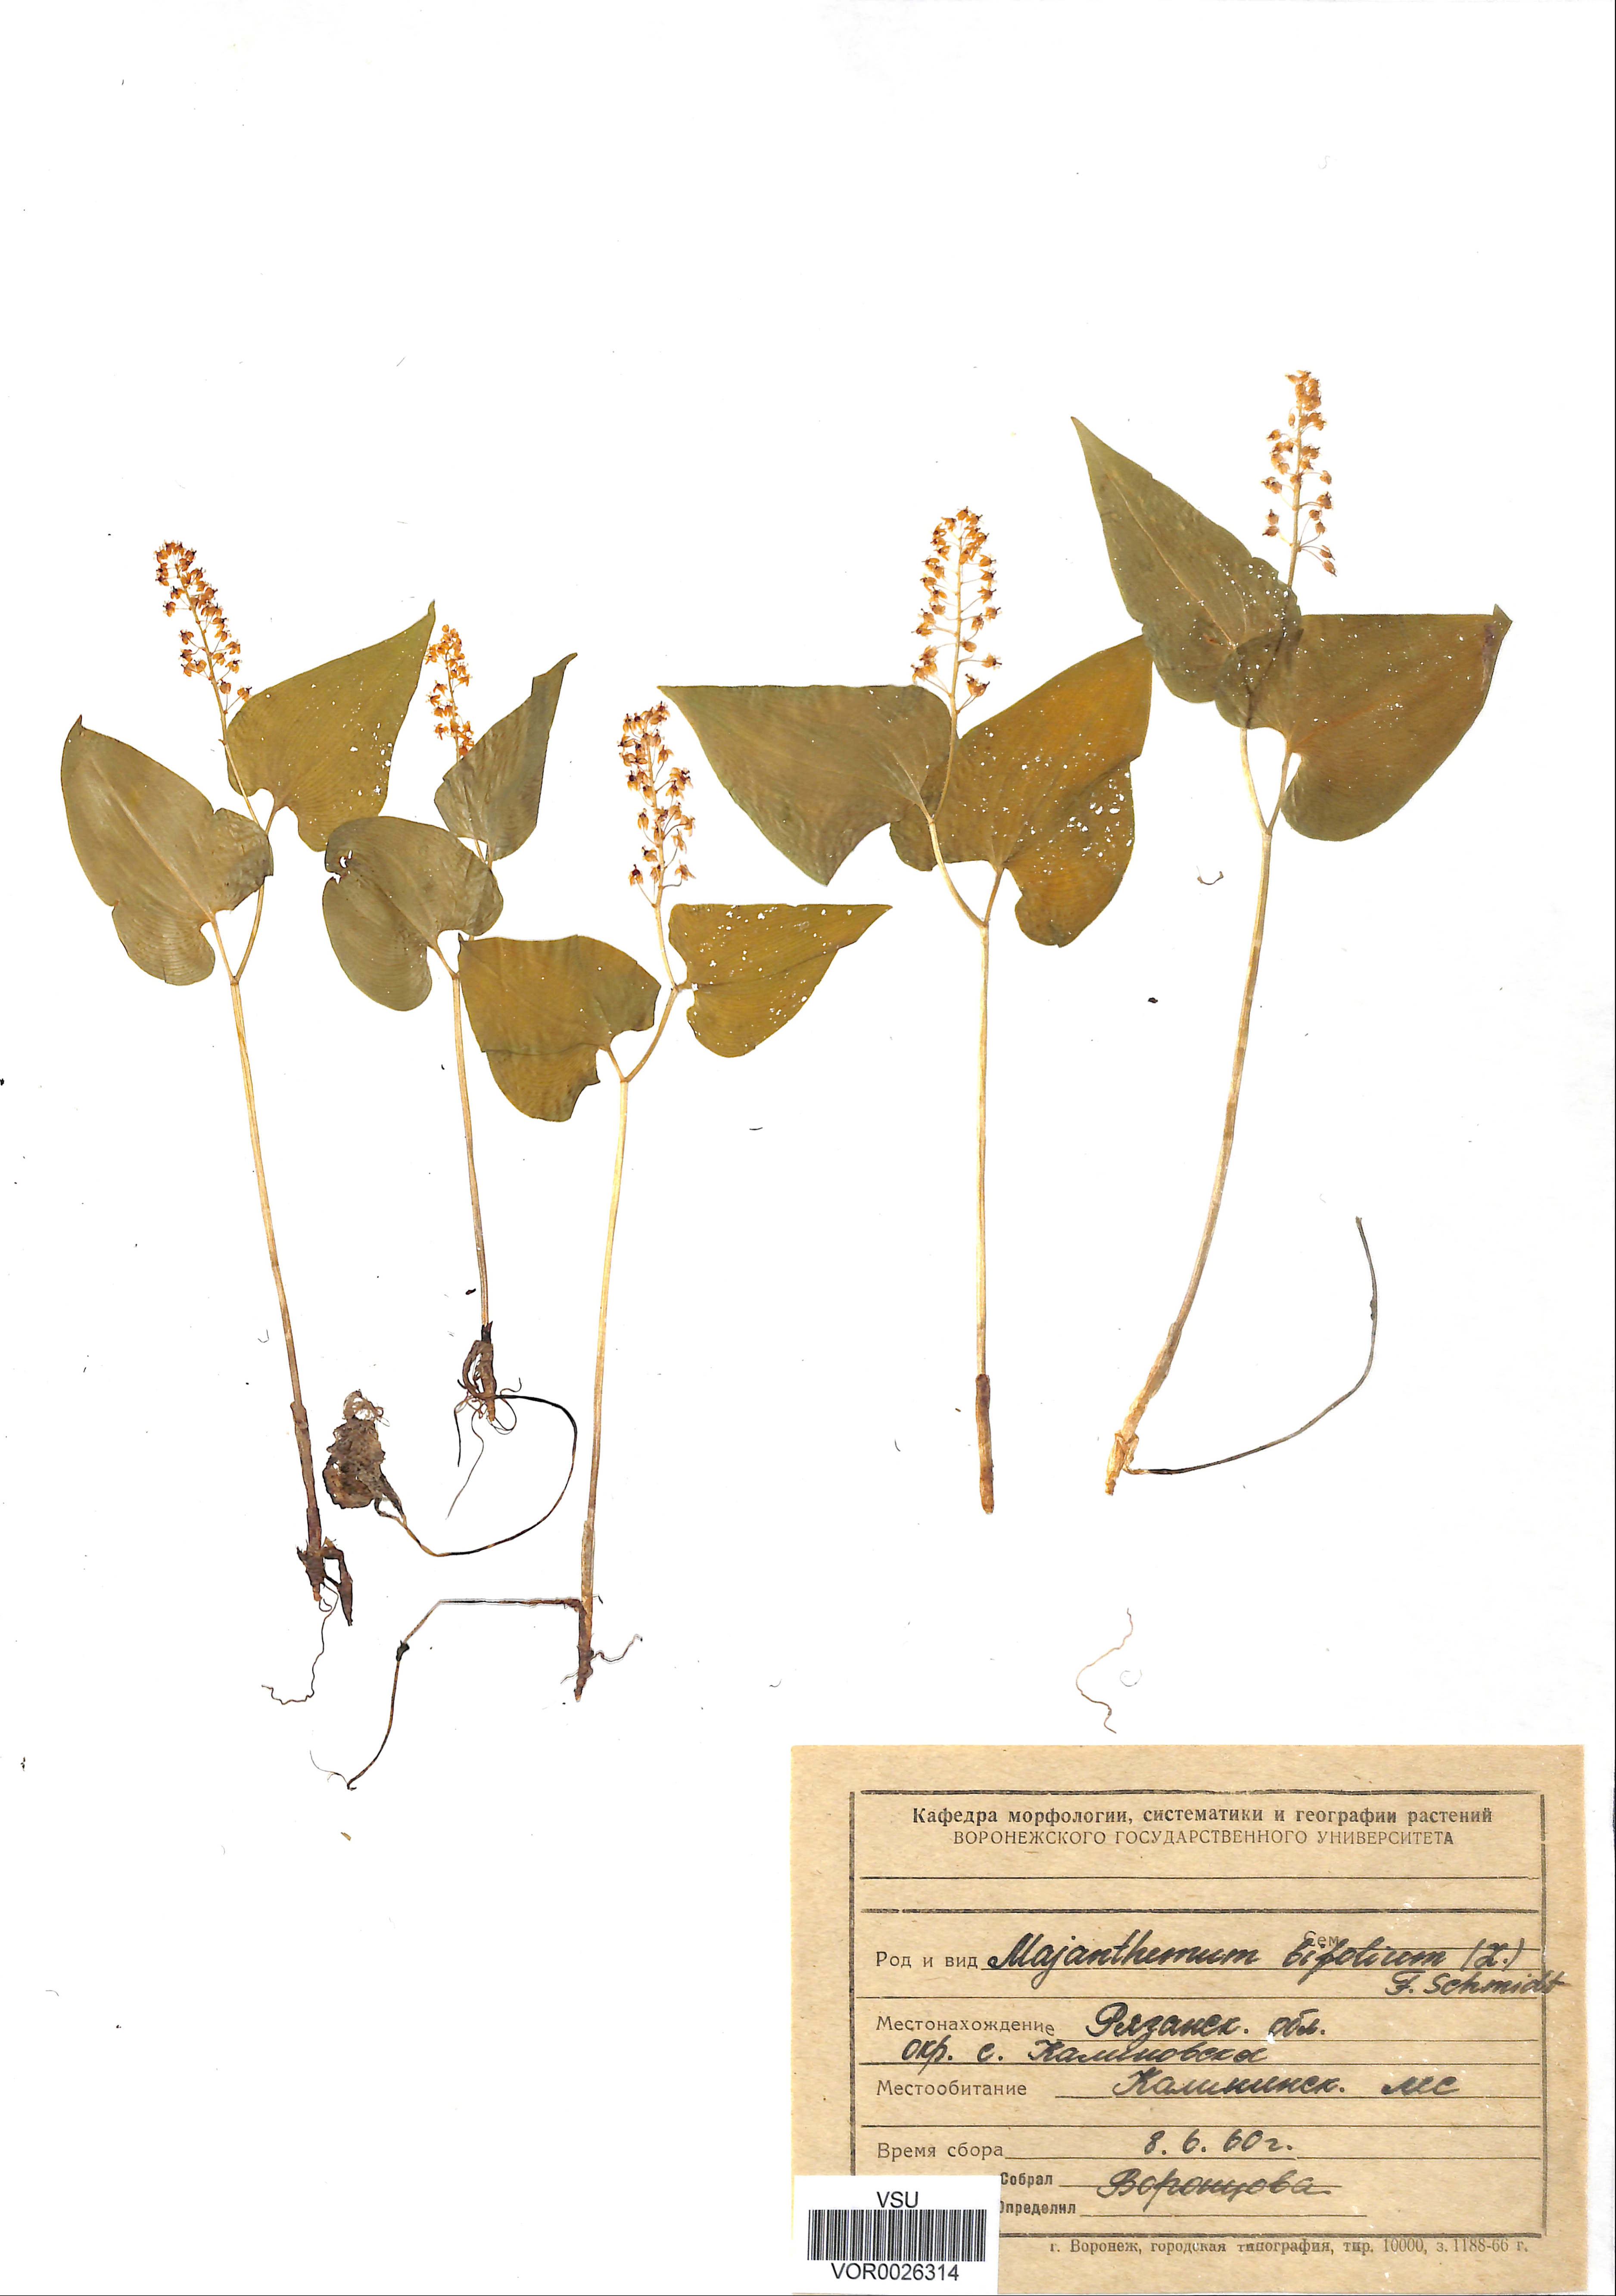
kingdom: Plantae
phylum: Tracheophyta
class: Liliopsida
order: Asparagales
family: Asparagaceae
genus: Maianthemum
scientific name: Maianthemum bifolium
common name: May lily
